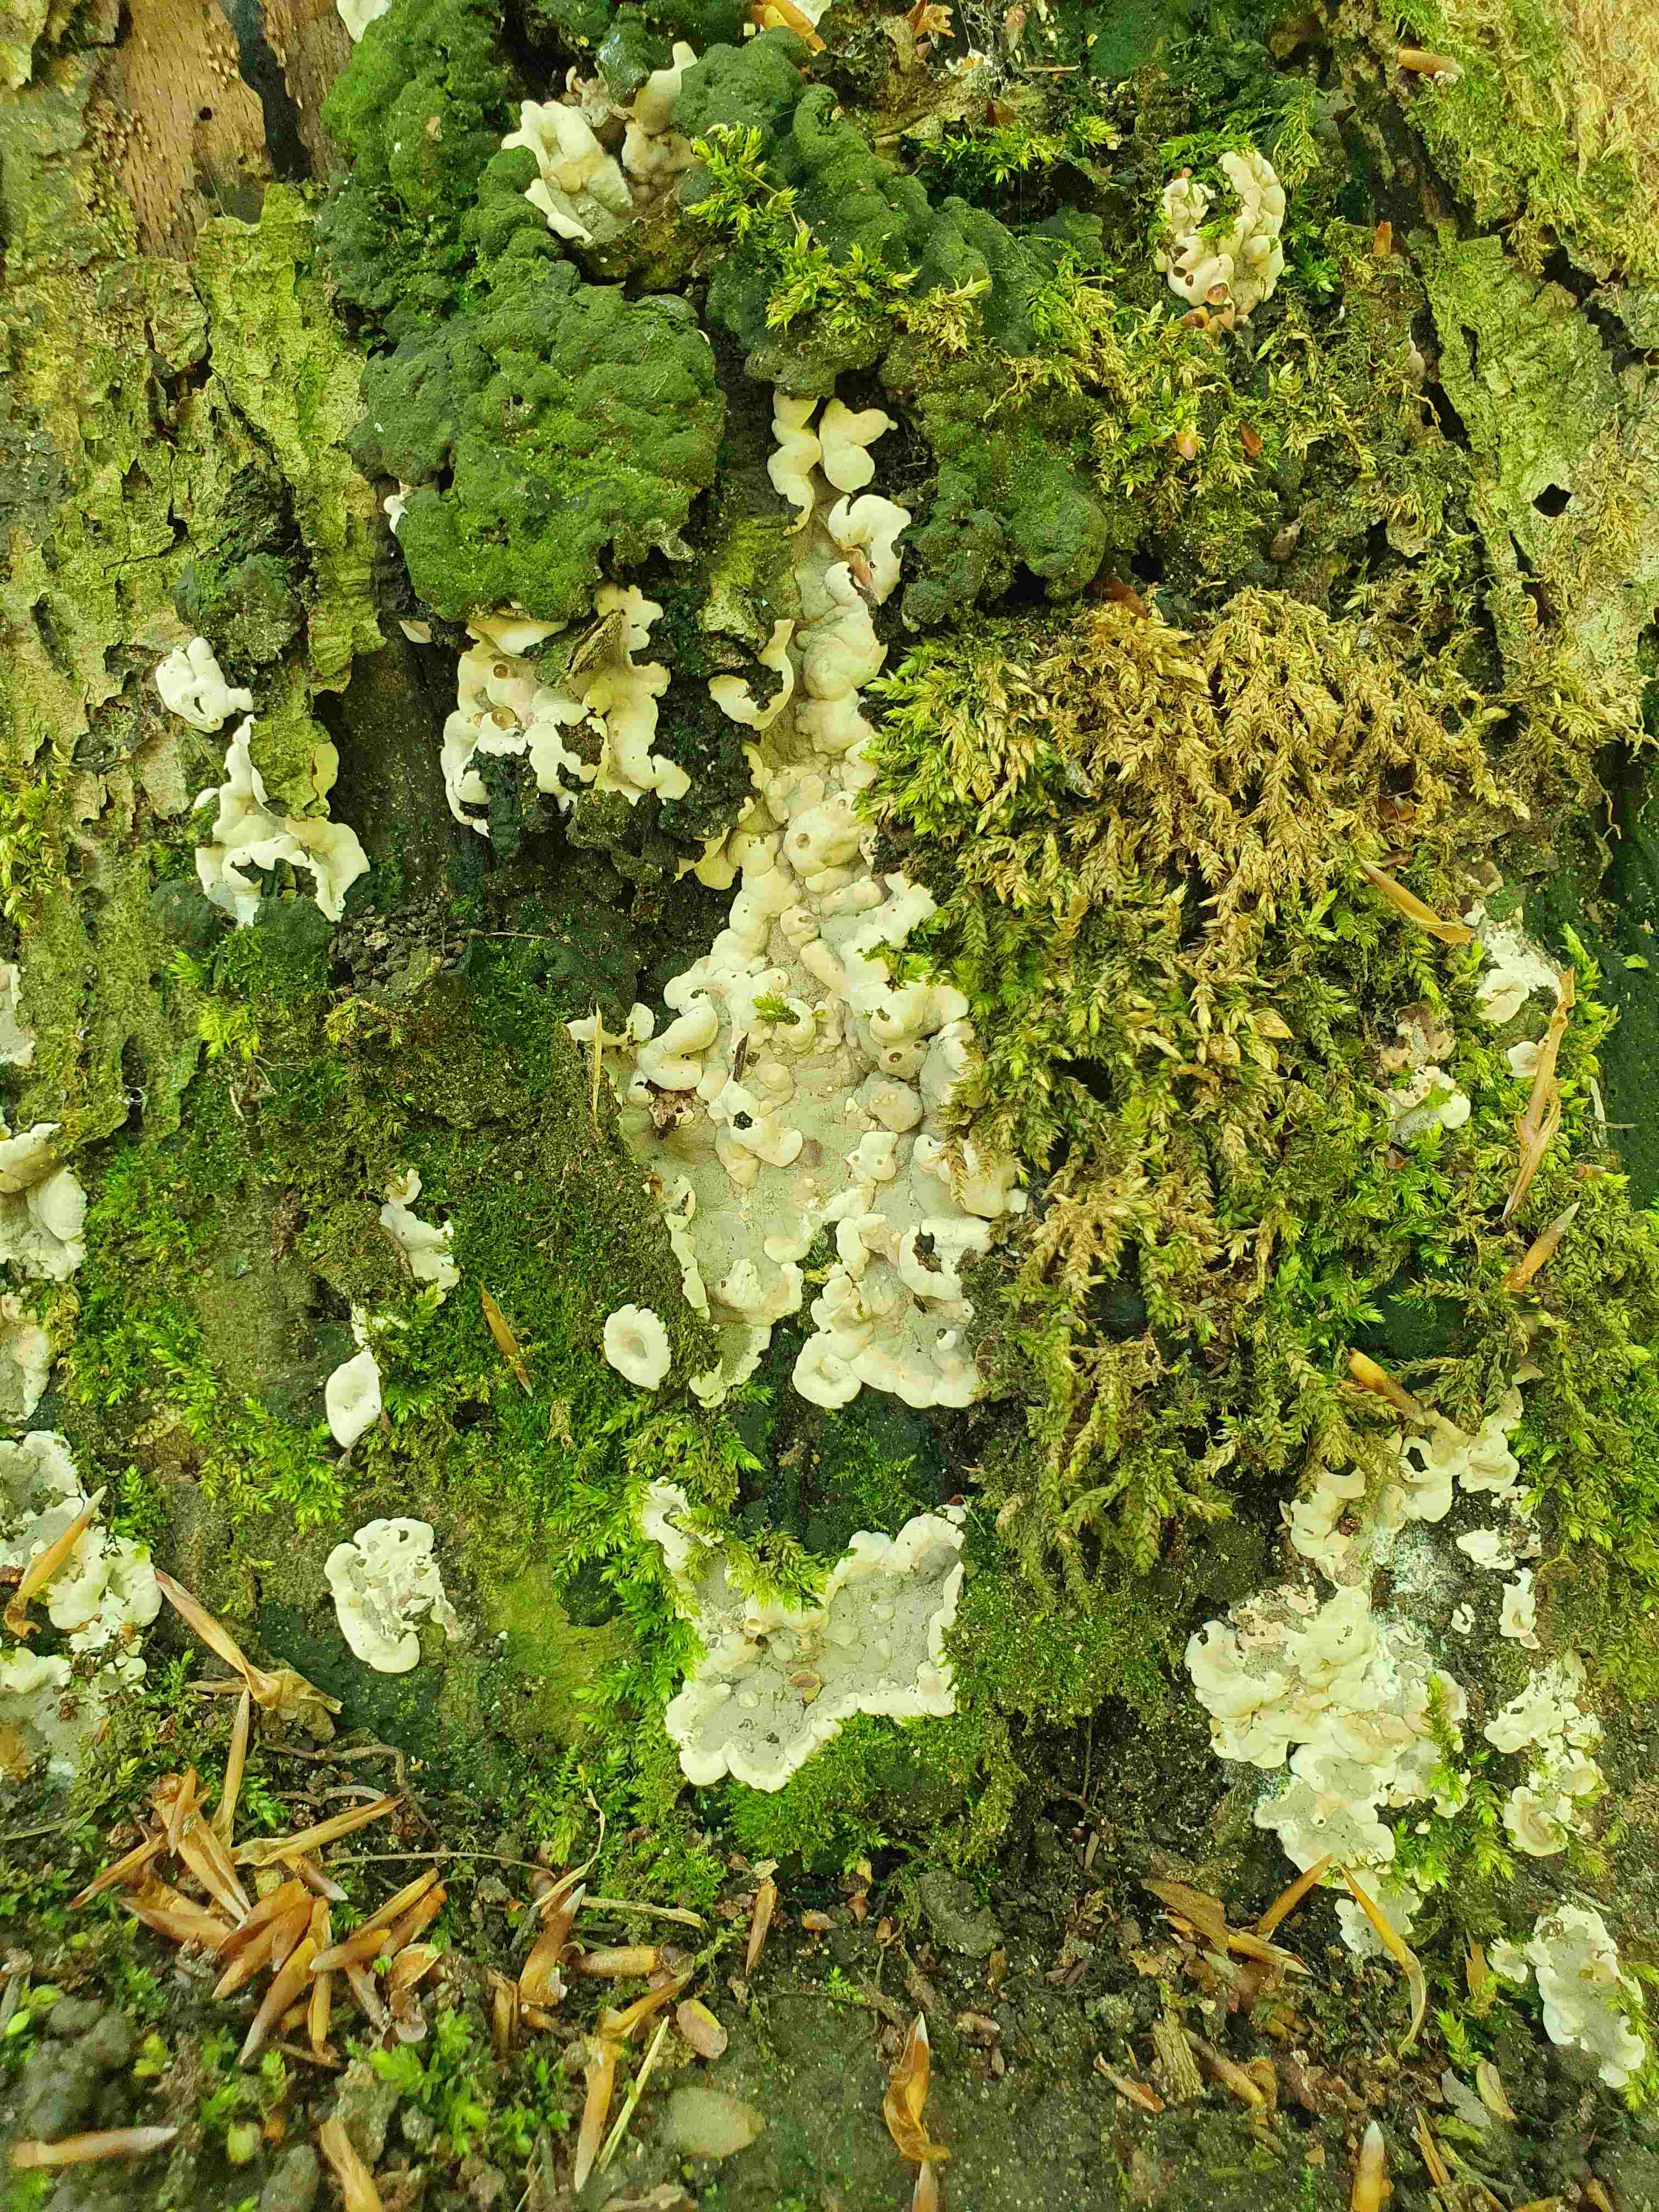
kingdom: Fungi
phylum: Ascomycota
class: Sordariomycetes
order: Xylariales
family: Xylariaceae
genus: Kretzschmaria
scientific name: Kretzschmaria deusta
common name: stor kulsvamp
